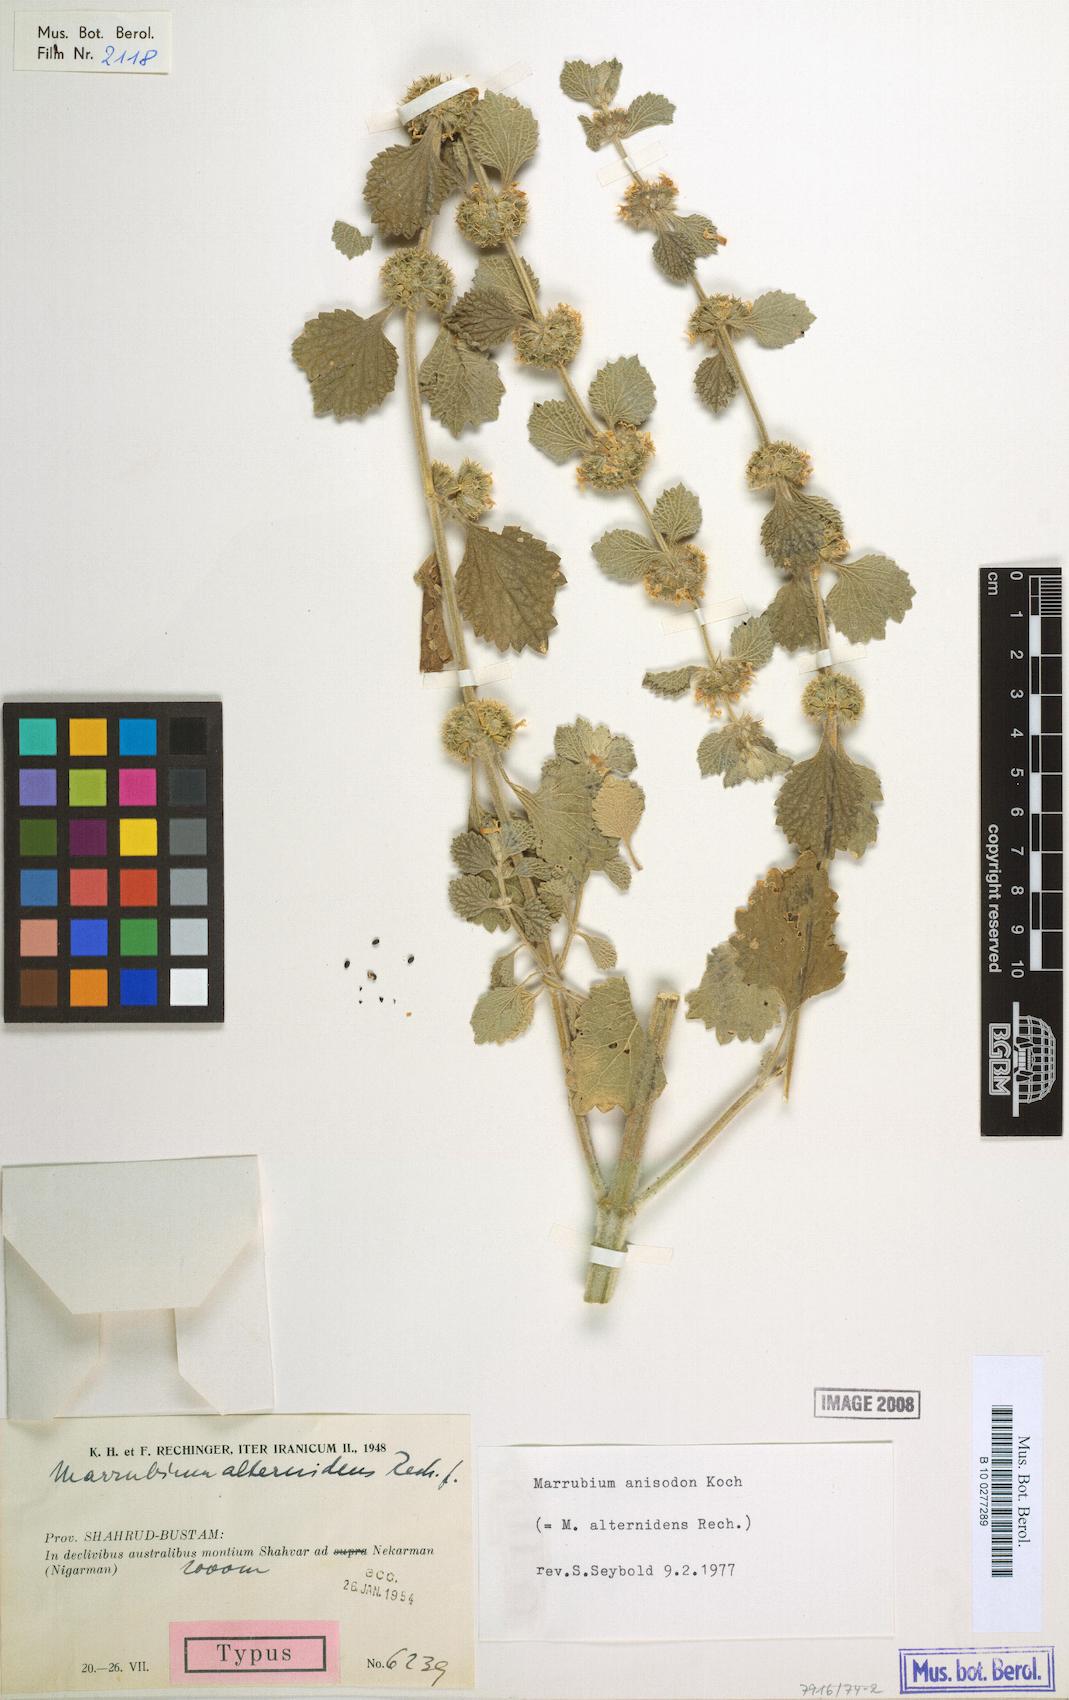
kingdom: Plantae
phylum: Tracheophyta
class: Magnoliopsida
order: Lamiales
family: Lamiaceae
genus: Marrubium
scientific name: Marrubium anisodon
